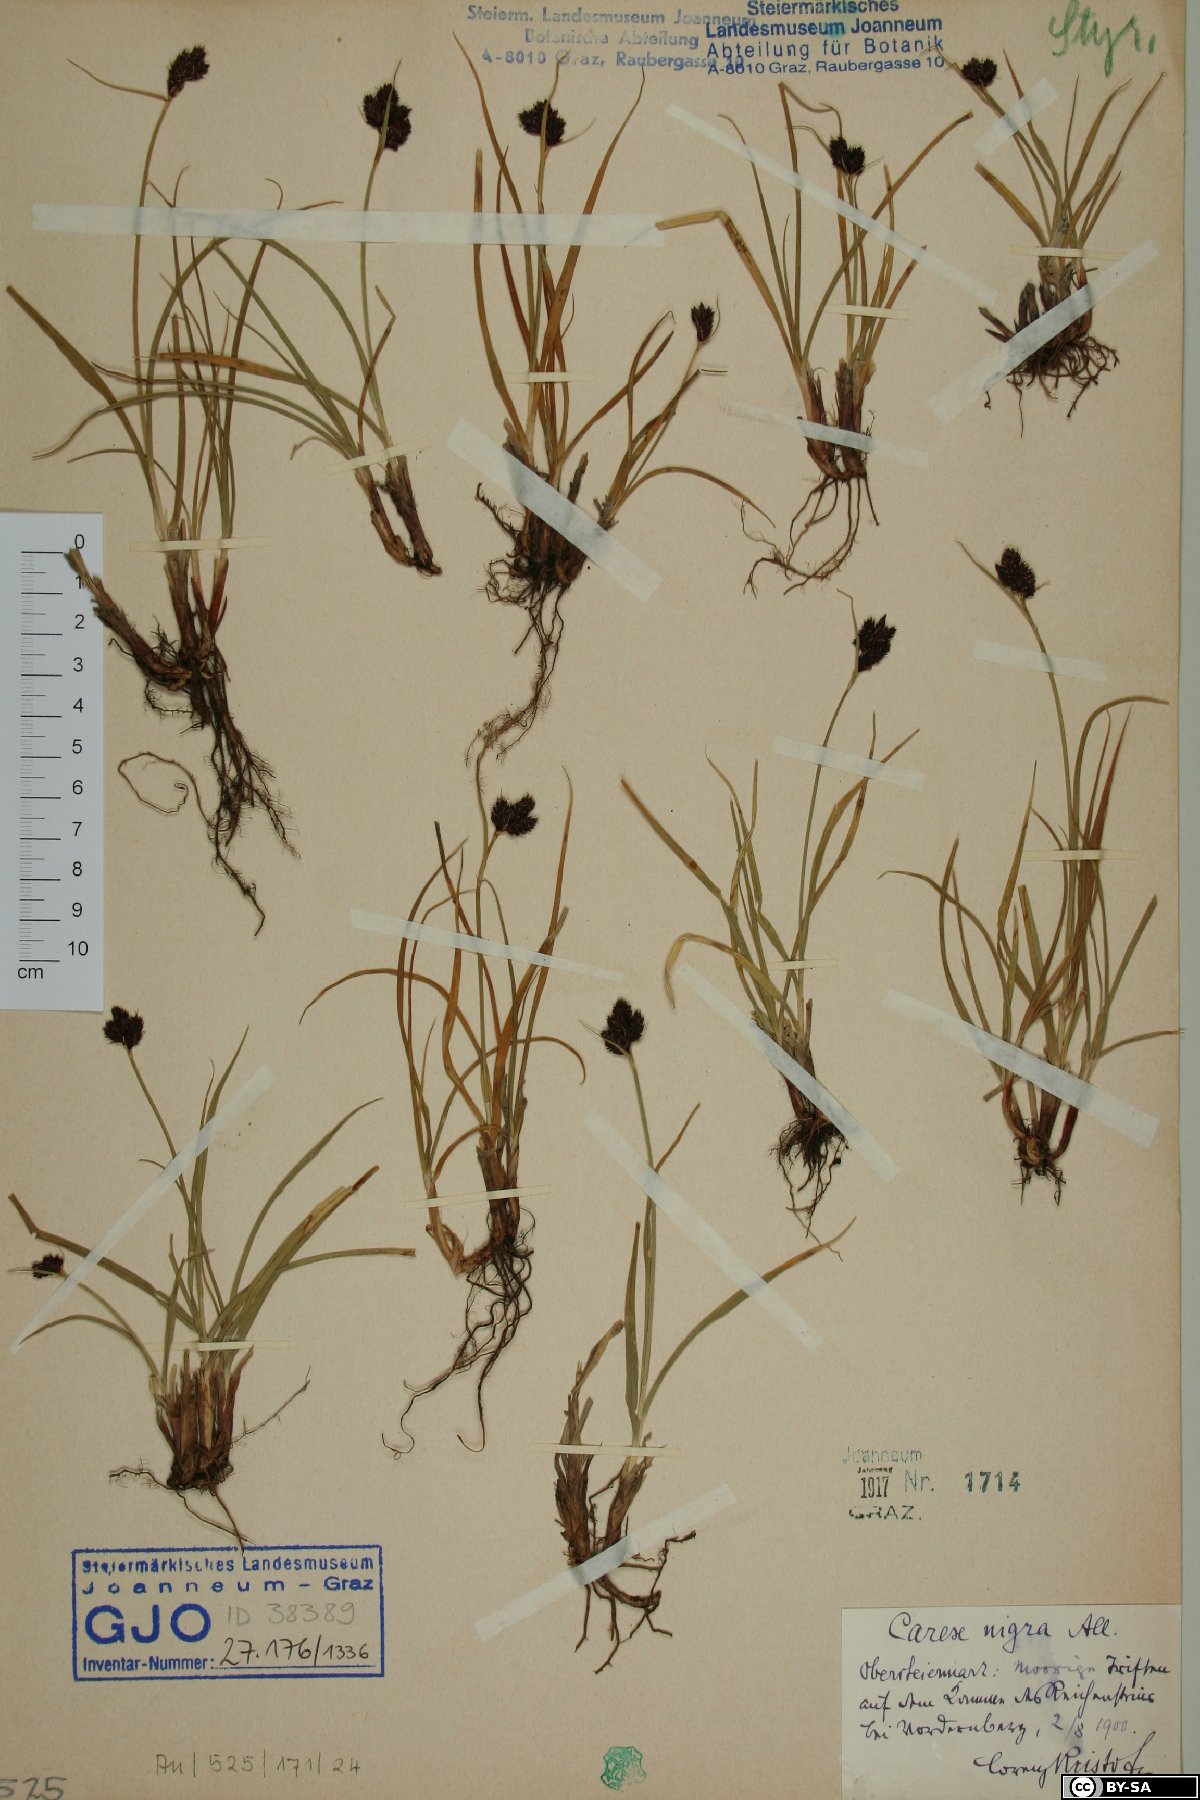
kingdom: Plantae
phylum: Tracheophyta
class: Liliopsida
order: Poales
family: Cyperaceae
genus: Carex
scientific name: Carex nigra
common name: Common sedge
